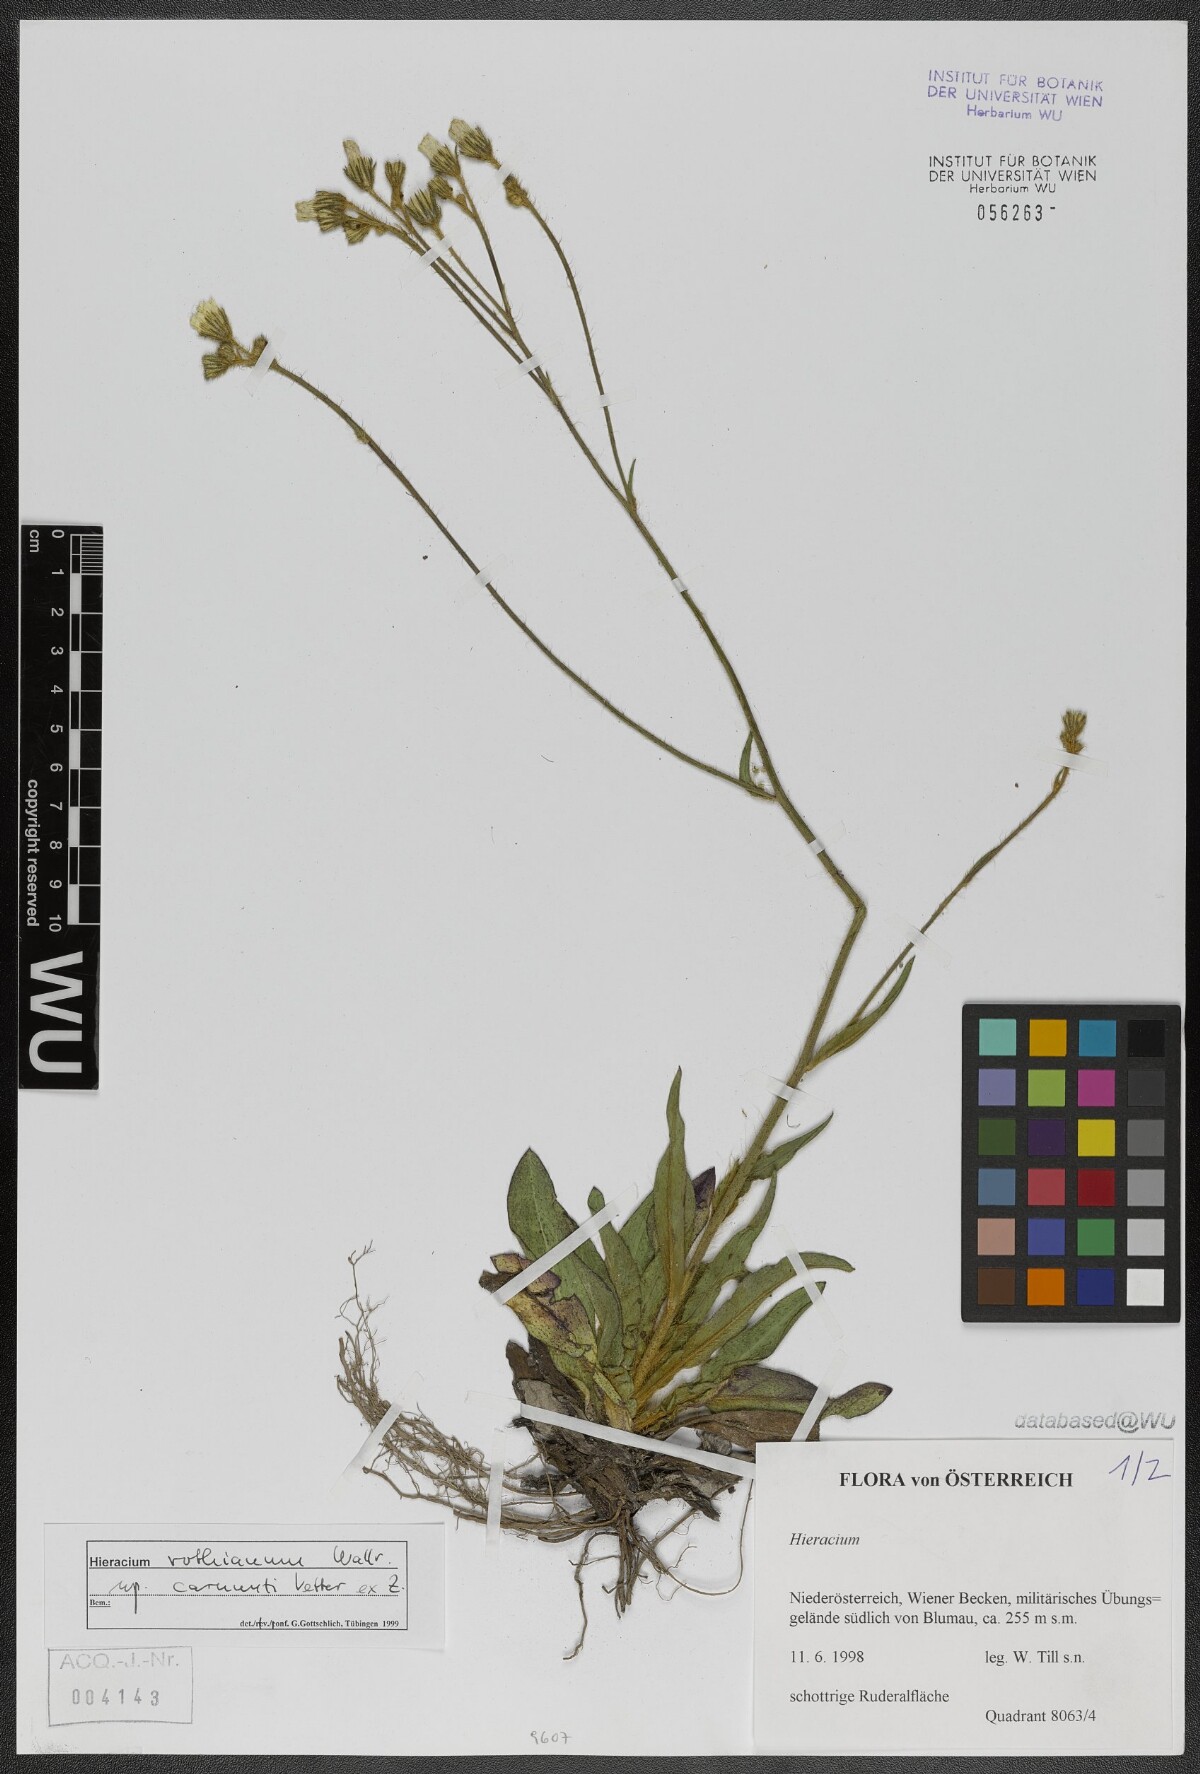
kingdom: Plantae
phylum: Tracheophyta
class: Magnoliopsida
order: Asterales
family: Asteraceae
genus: Pilosella
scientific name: Pilosella rothiana
